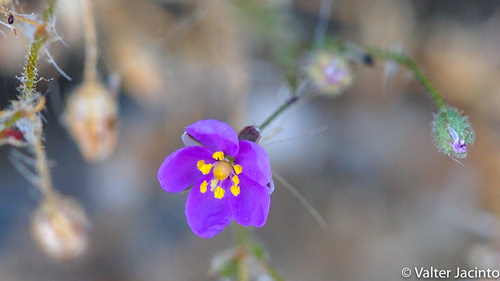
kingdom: Plantae
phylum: Tracheophyta
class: Magnoliopsida
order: Caryophyllales
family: Caryophyllaceae
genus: Spergularia
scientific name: Spergularia purpurea
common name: Purple sandspurry
